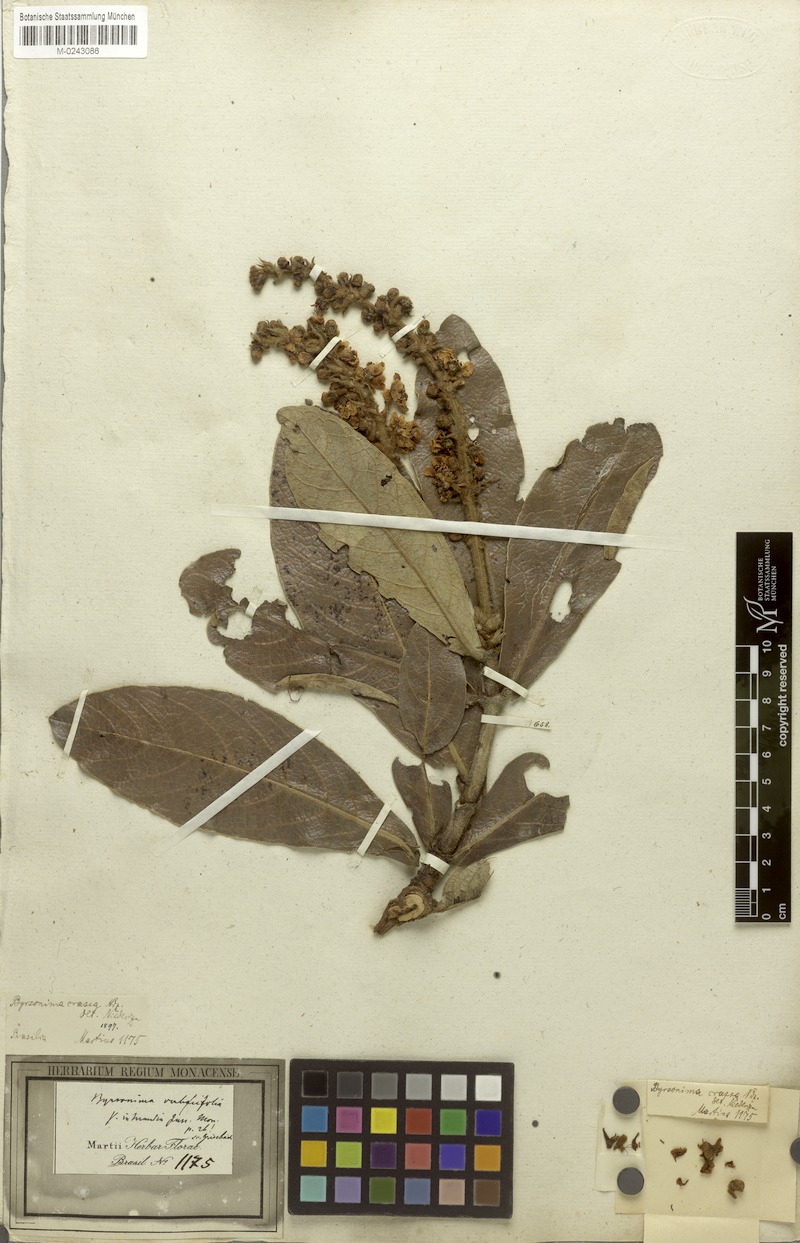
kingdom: Plantae
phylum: Tracheophyta
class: Magnoliopsida
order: Malpighiales
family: Malpighiaceae
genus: Byrsonima
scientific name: Byrsonima pachyphylla
